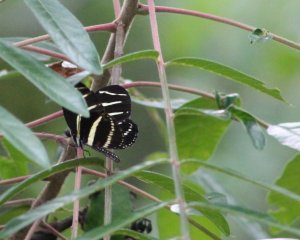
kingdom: Animalia
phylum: Arthropoda
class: Insecta
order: Lepidoptera
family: Nymphalidae
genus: Heliconius
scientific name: Heliconius charithonia
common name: Zebra Longwing
